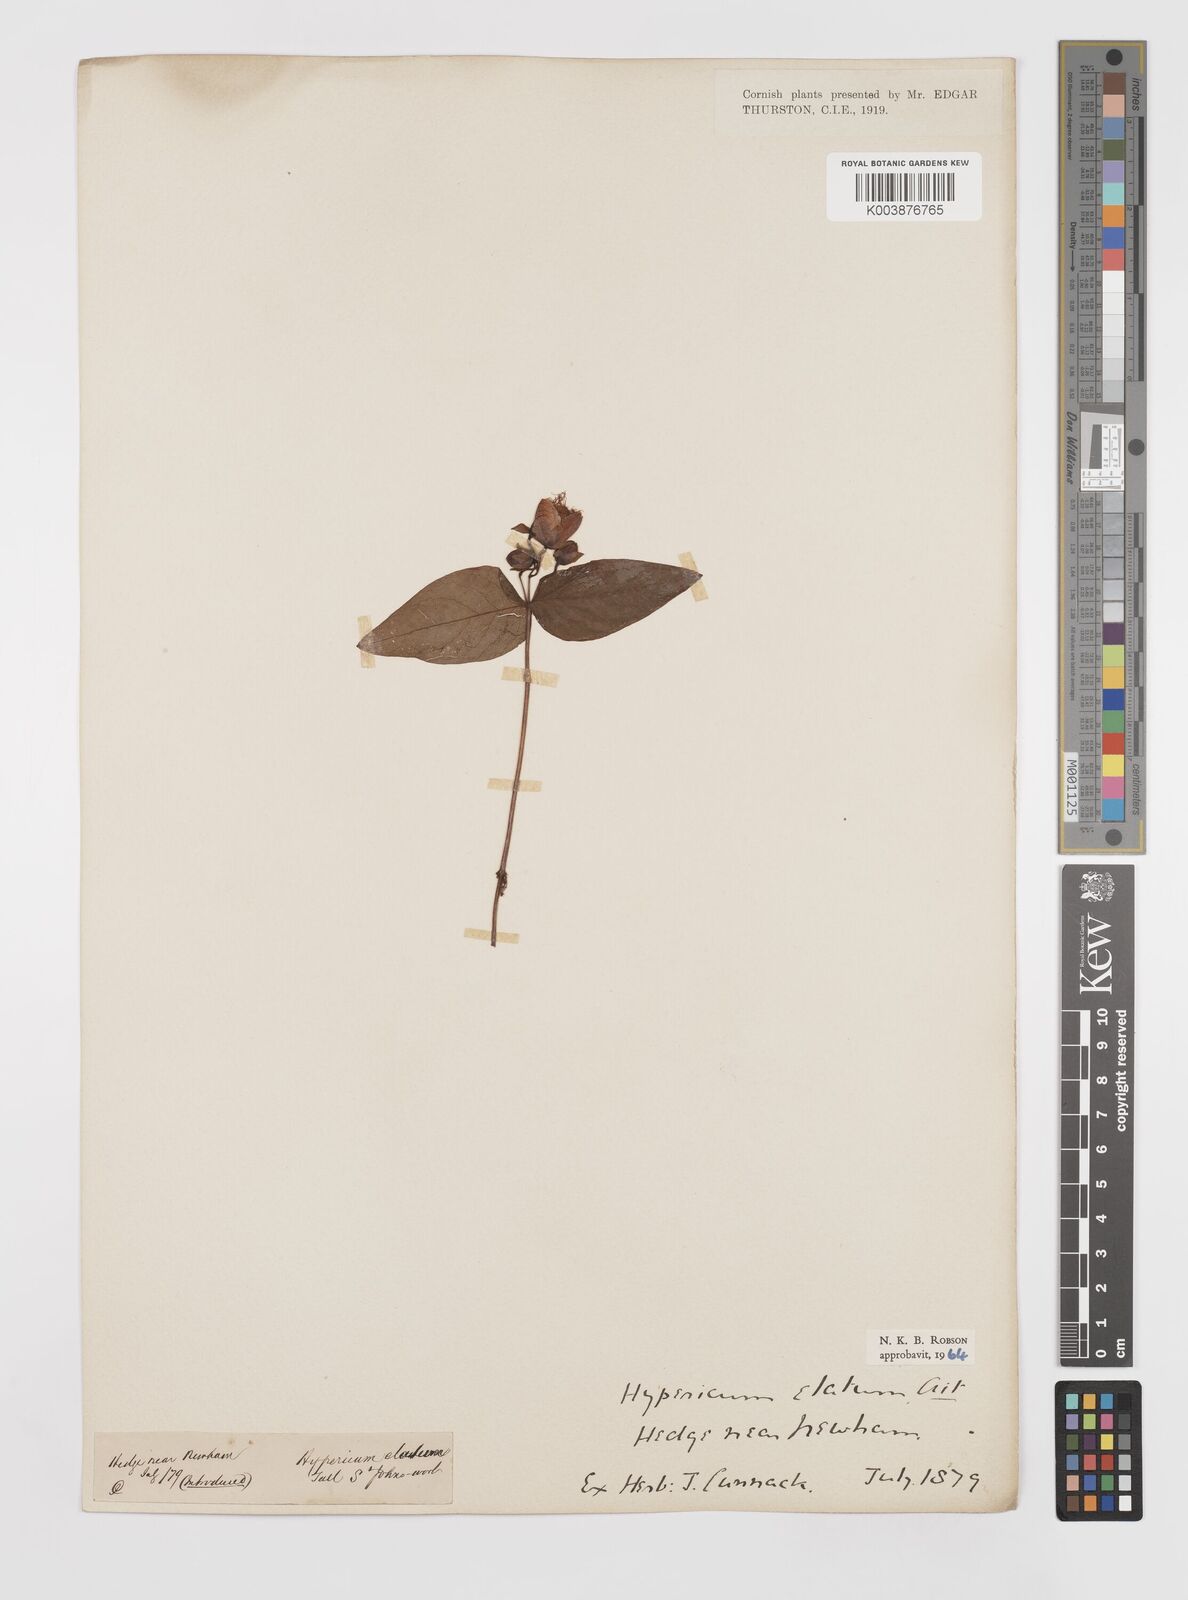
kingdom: Plantae
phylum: Tracheophyta
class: Magnoliopsida
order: Malpighiales
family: Hypericaceae
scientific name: Hypericaceae
